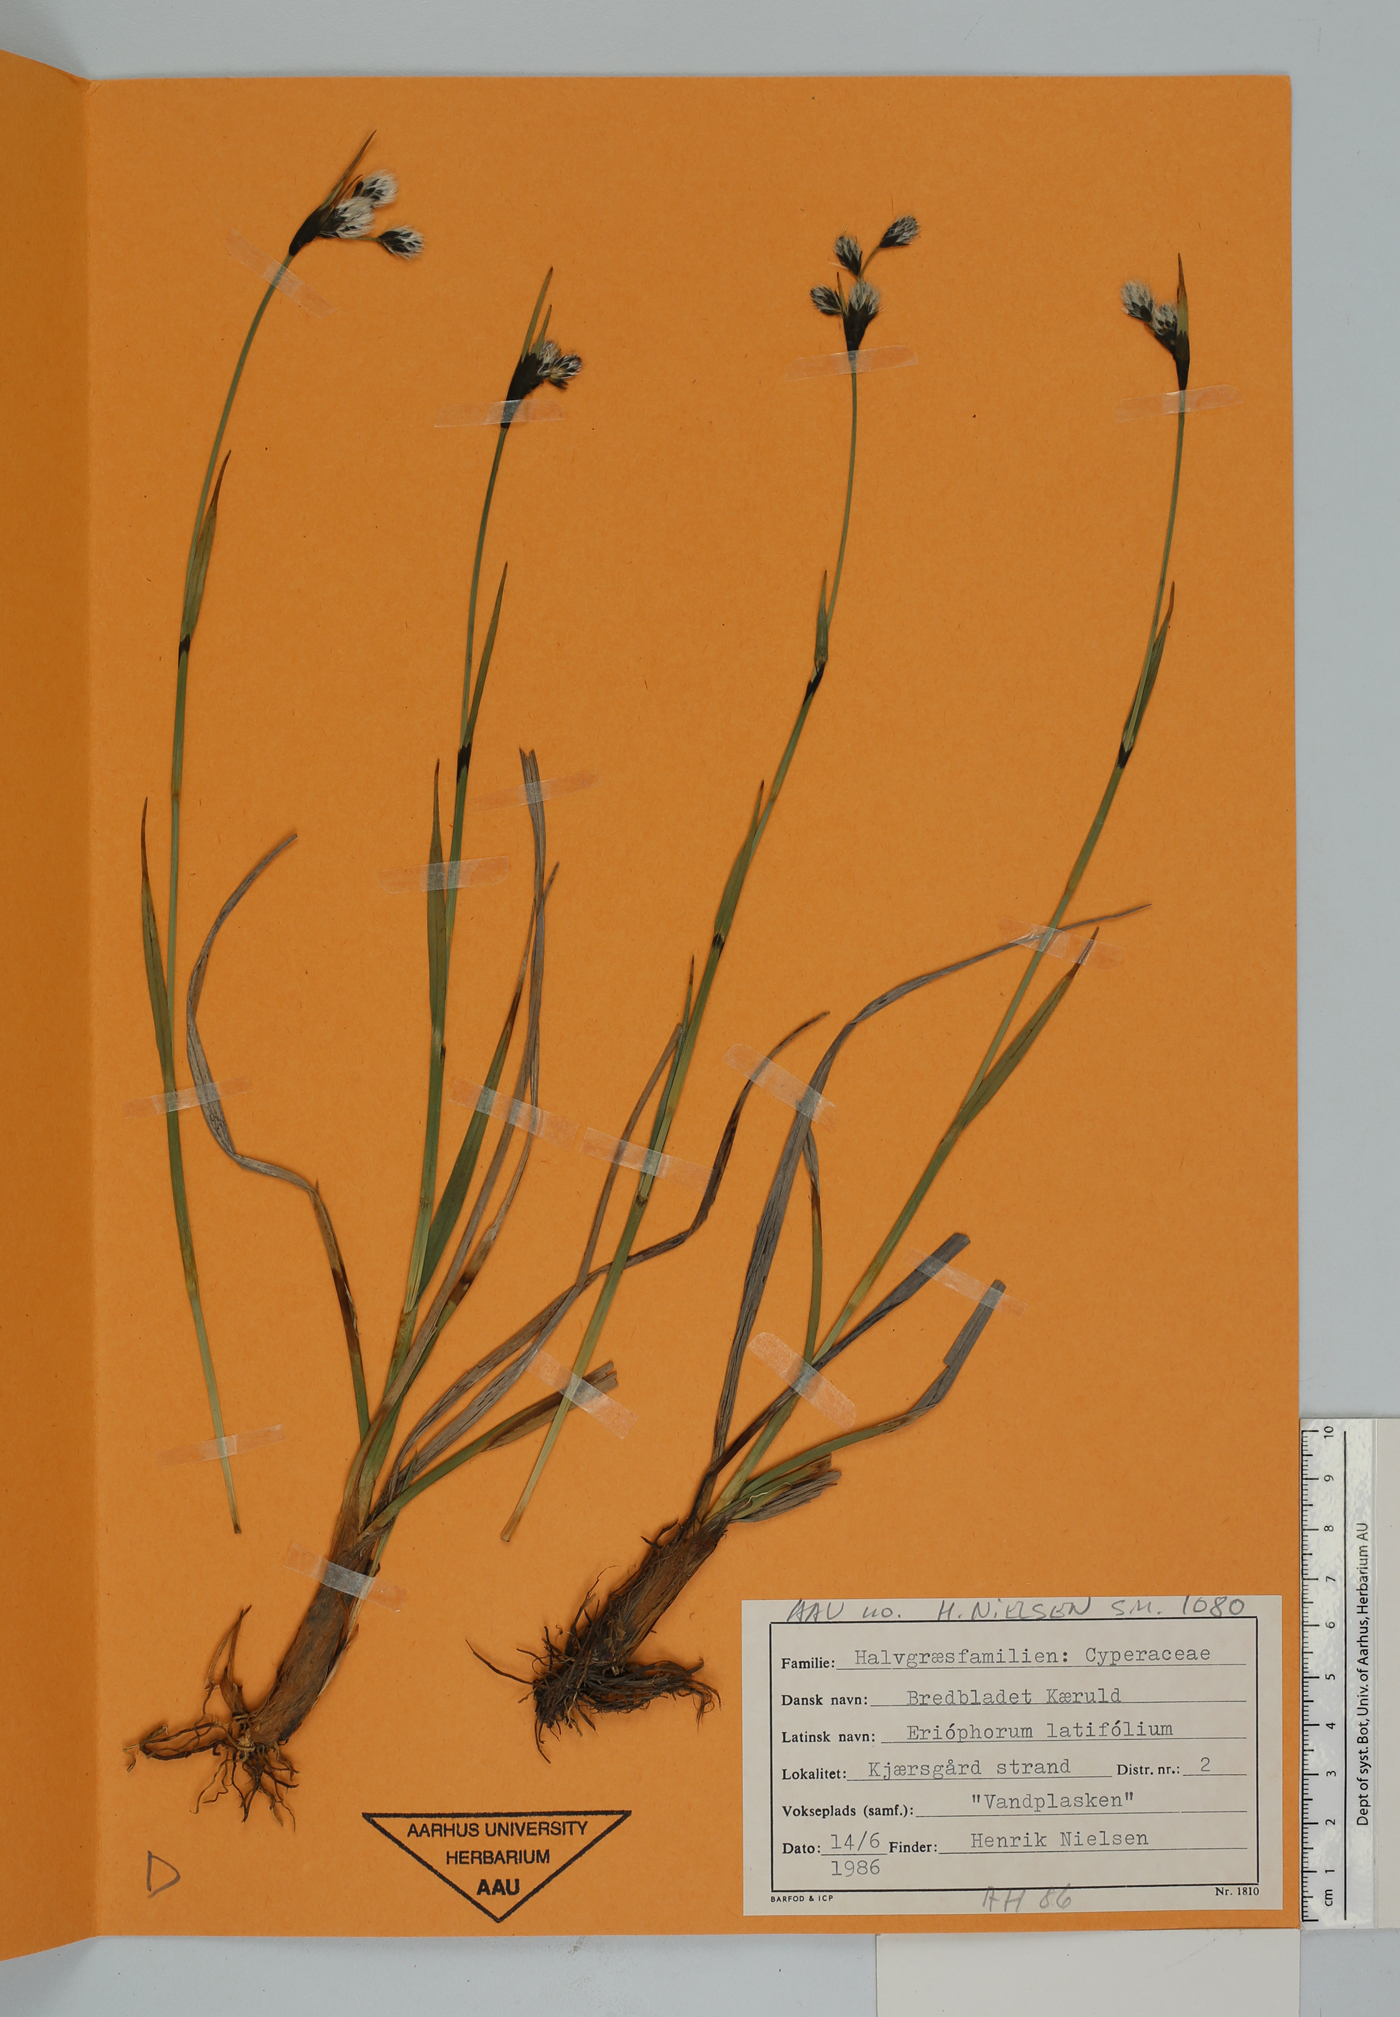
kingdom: Plantae
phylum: Tracheophyta
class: Liliopsida
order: Poales
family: Cyperaceae
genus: Eriophorum
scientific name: Eriophorum latifolium
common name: Broad-leaved cottongrass
